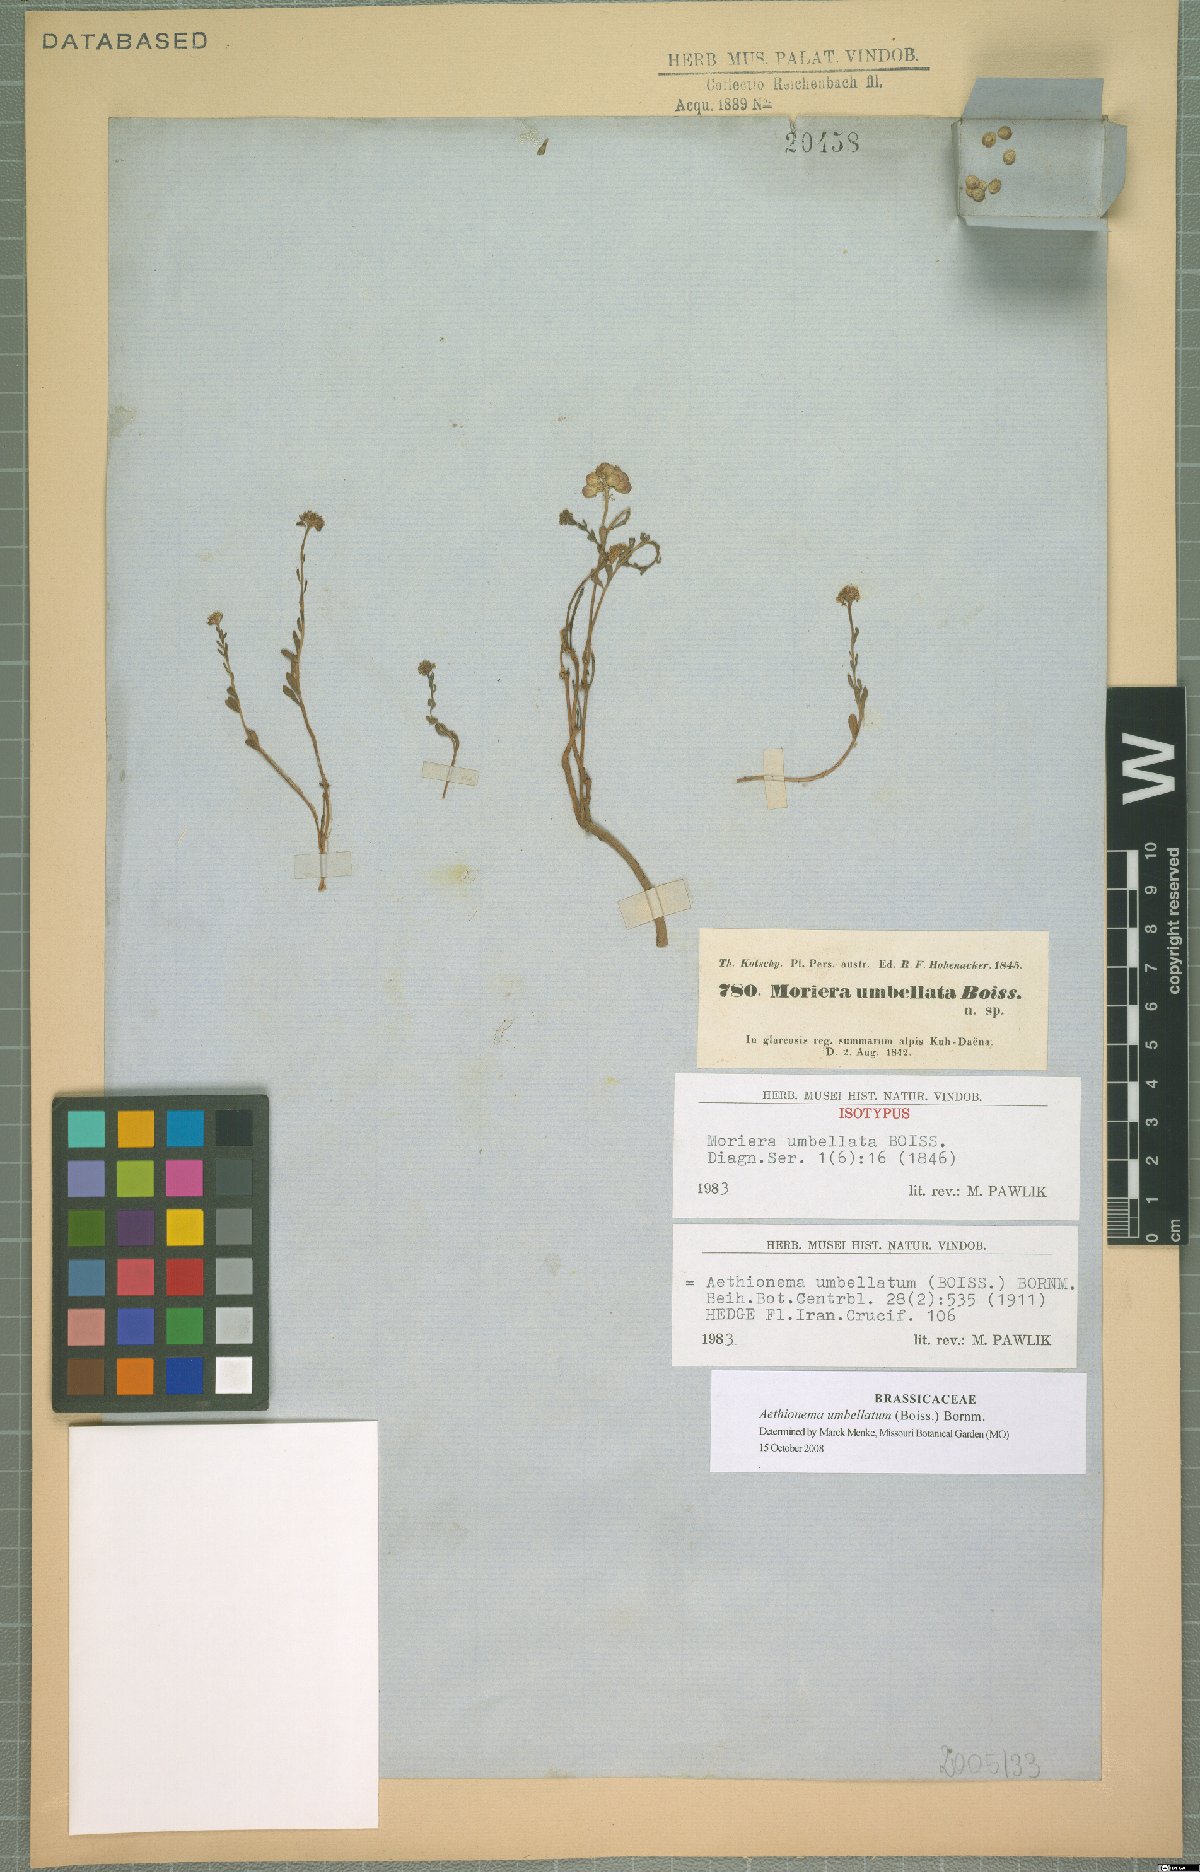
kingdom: Plantae
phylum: Tracheophyta
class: Magnoliopsida
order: Brassicales
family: Brassicaceae
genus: Aethionema
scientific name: Aethionema umbellatum
